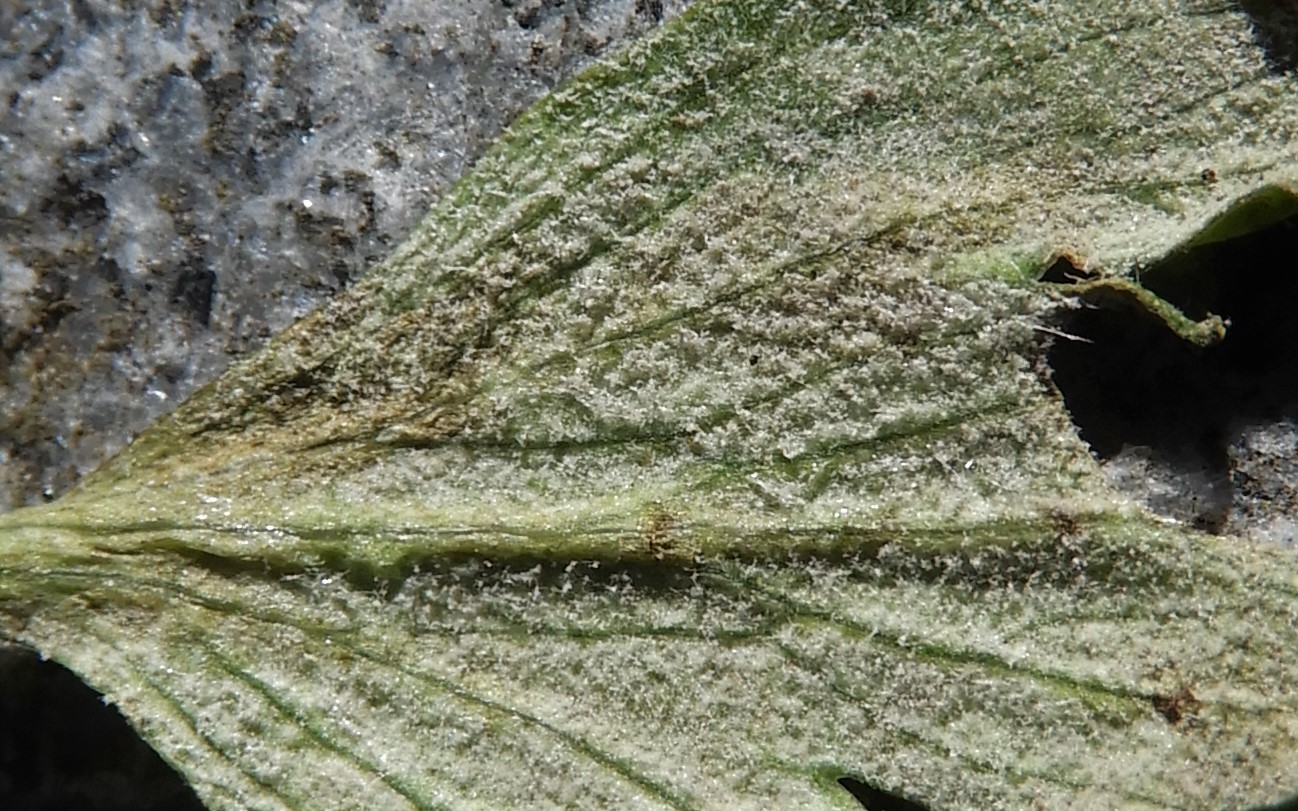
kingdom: Chromista
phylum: Oomycota
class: Peronosporea
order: Peronosporales
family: Peronosporaceae
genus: Peronospora
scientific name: Peronospora bulbocapni
